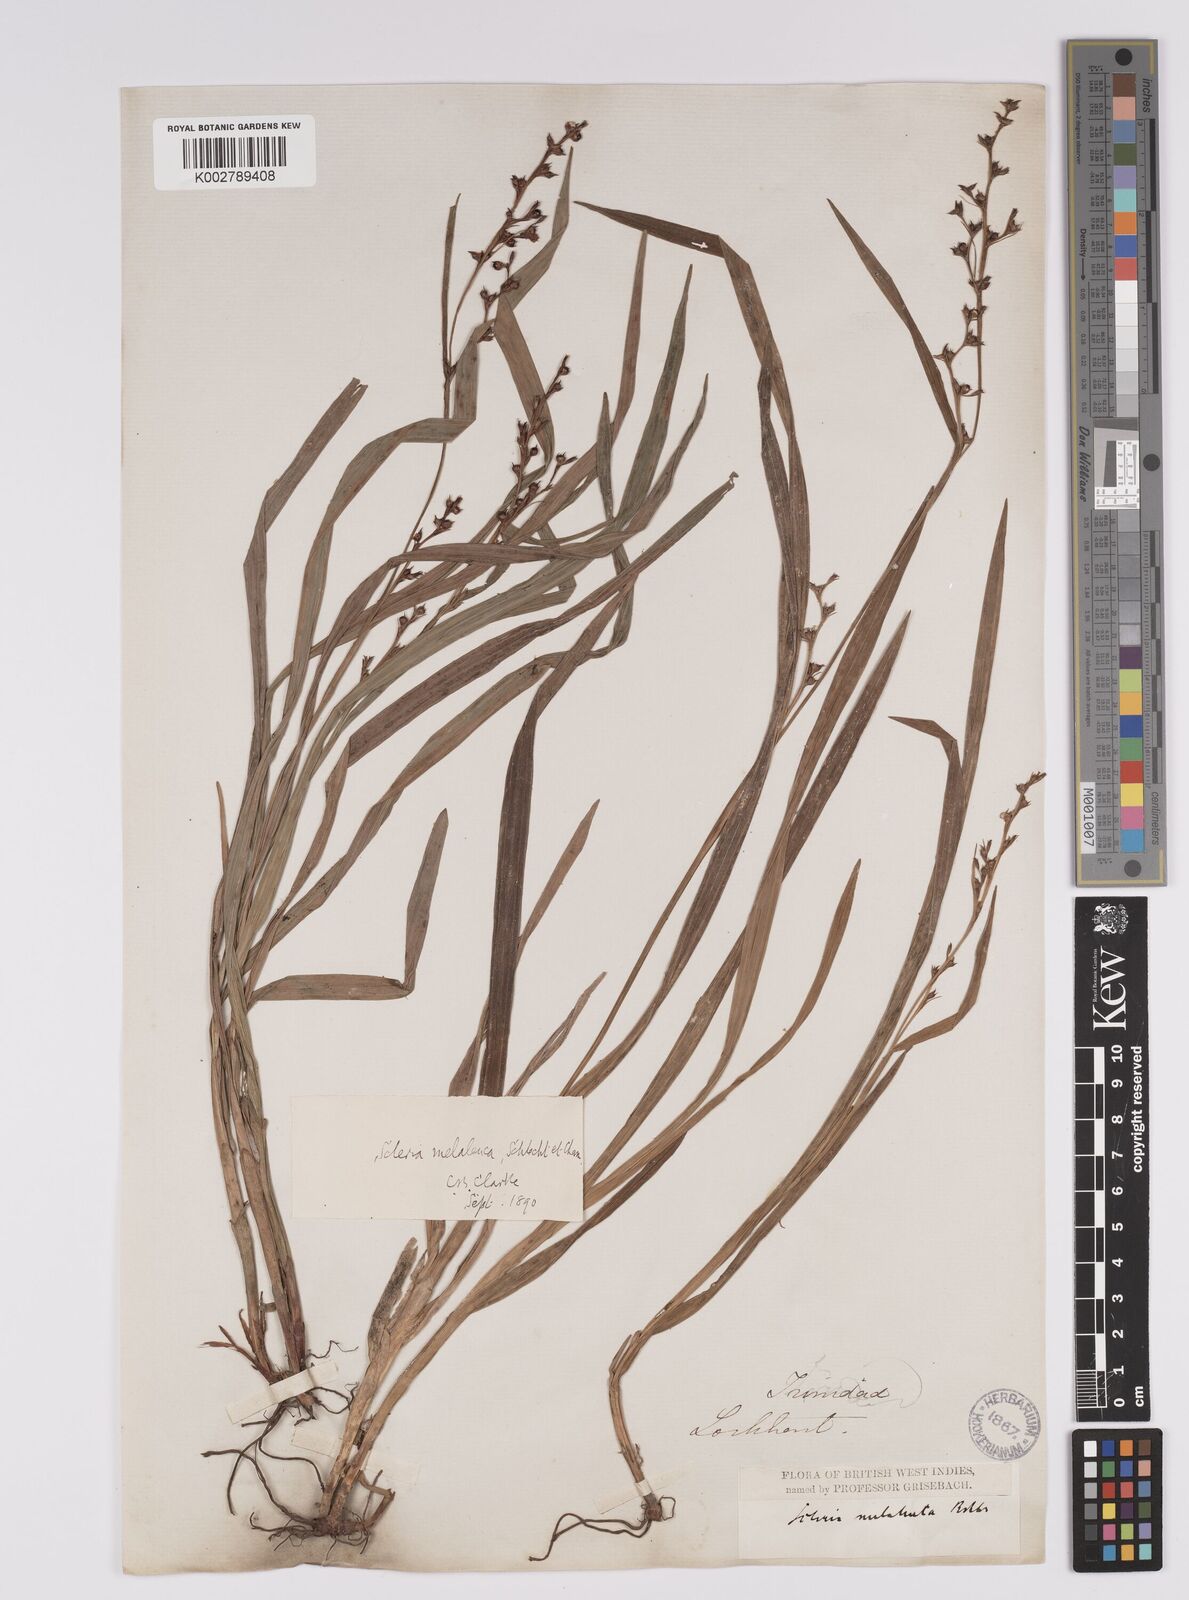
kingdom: Plantae
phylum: Tracheophyta
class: Liliopsida
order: Poales
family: Cyperaceae
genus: Scleria
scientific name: Scleria gaertneri
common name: Cortadera blanca
